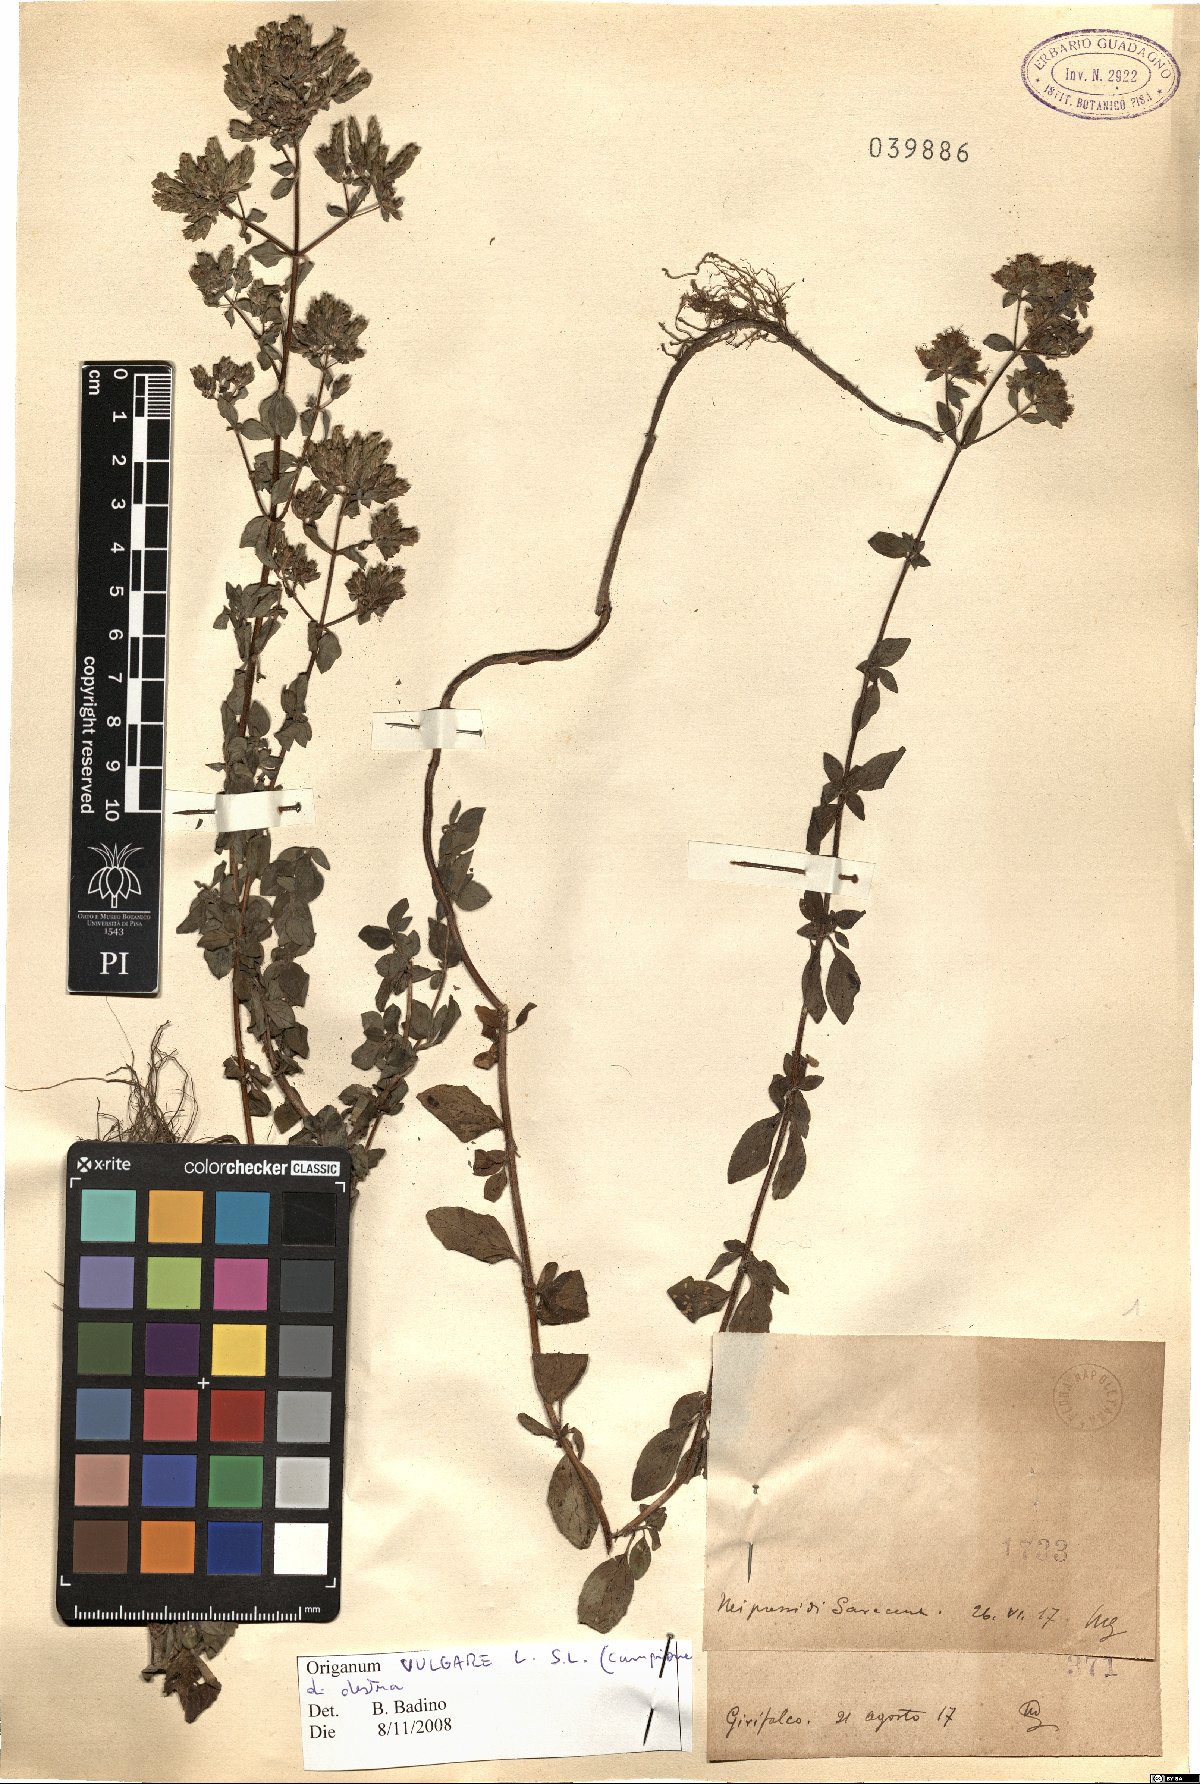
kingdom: Plantae
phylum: Tracheophyta
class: Magnoliopsida
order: Lamiales
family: Lamiaceae
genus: Origanum
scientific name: Origanum vulgare
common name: Wild marjoram
